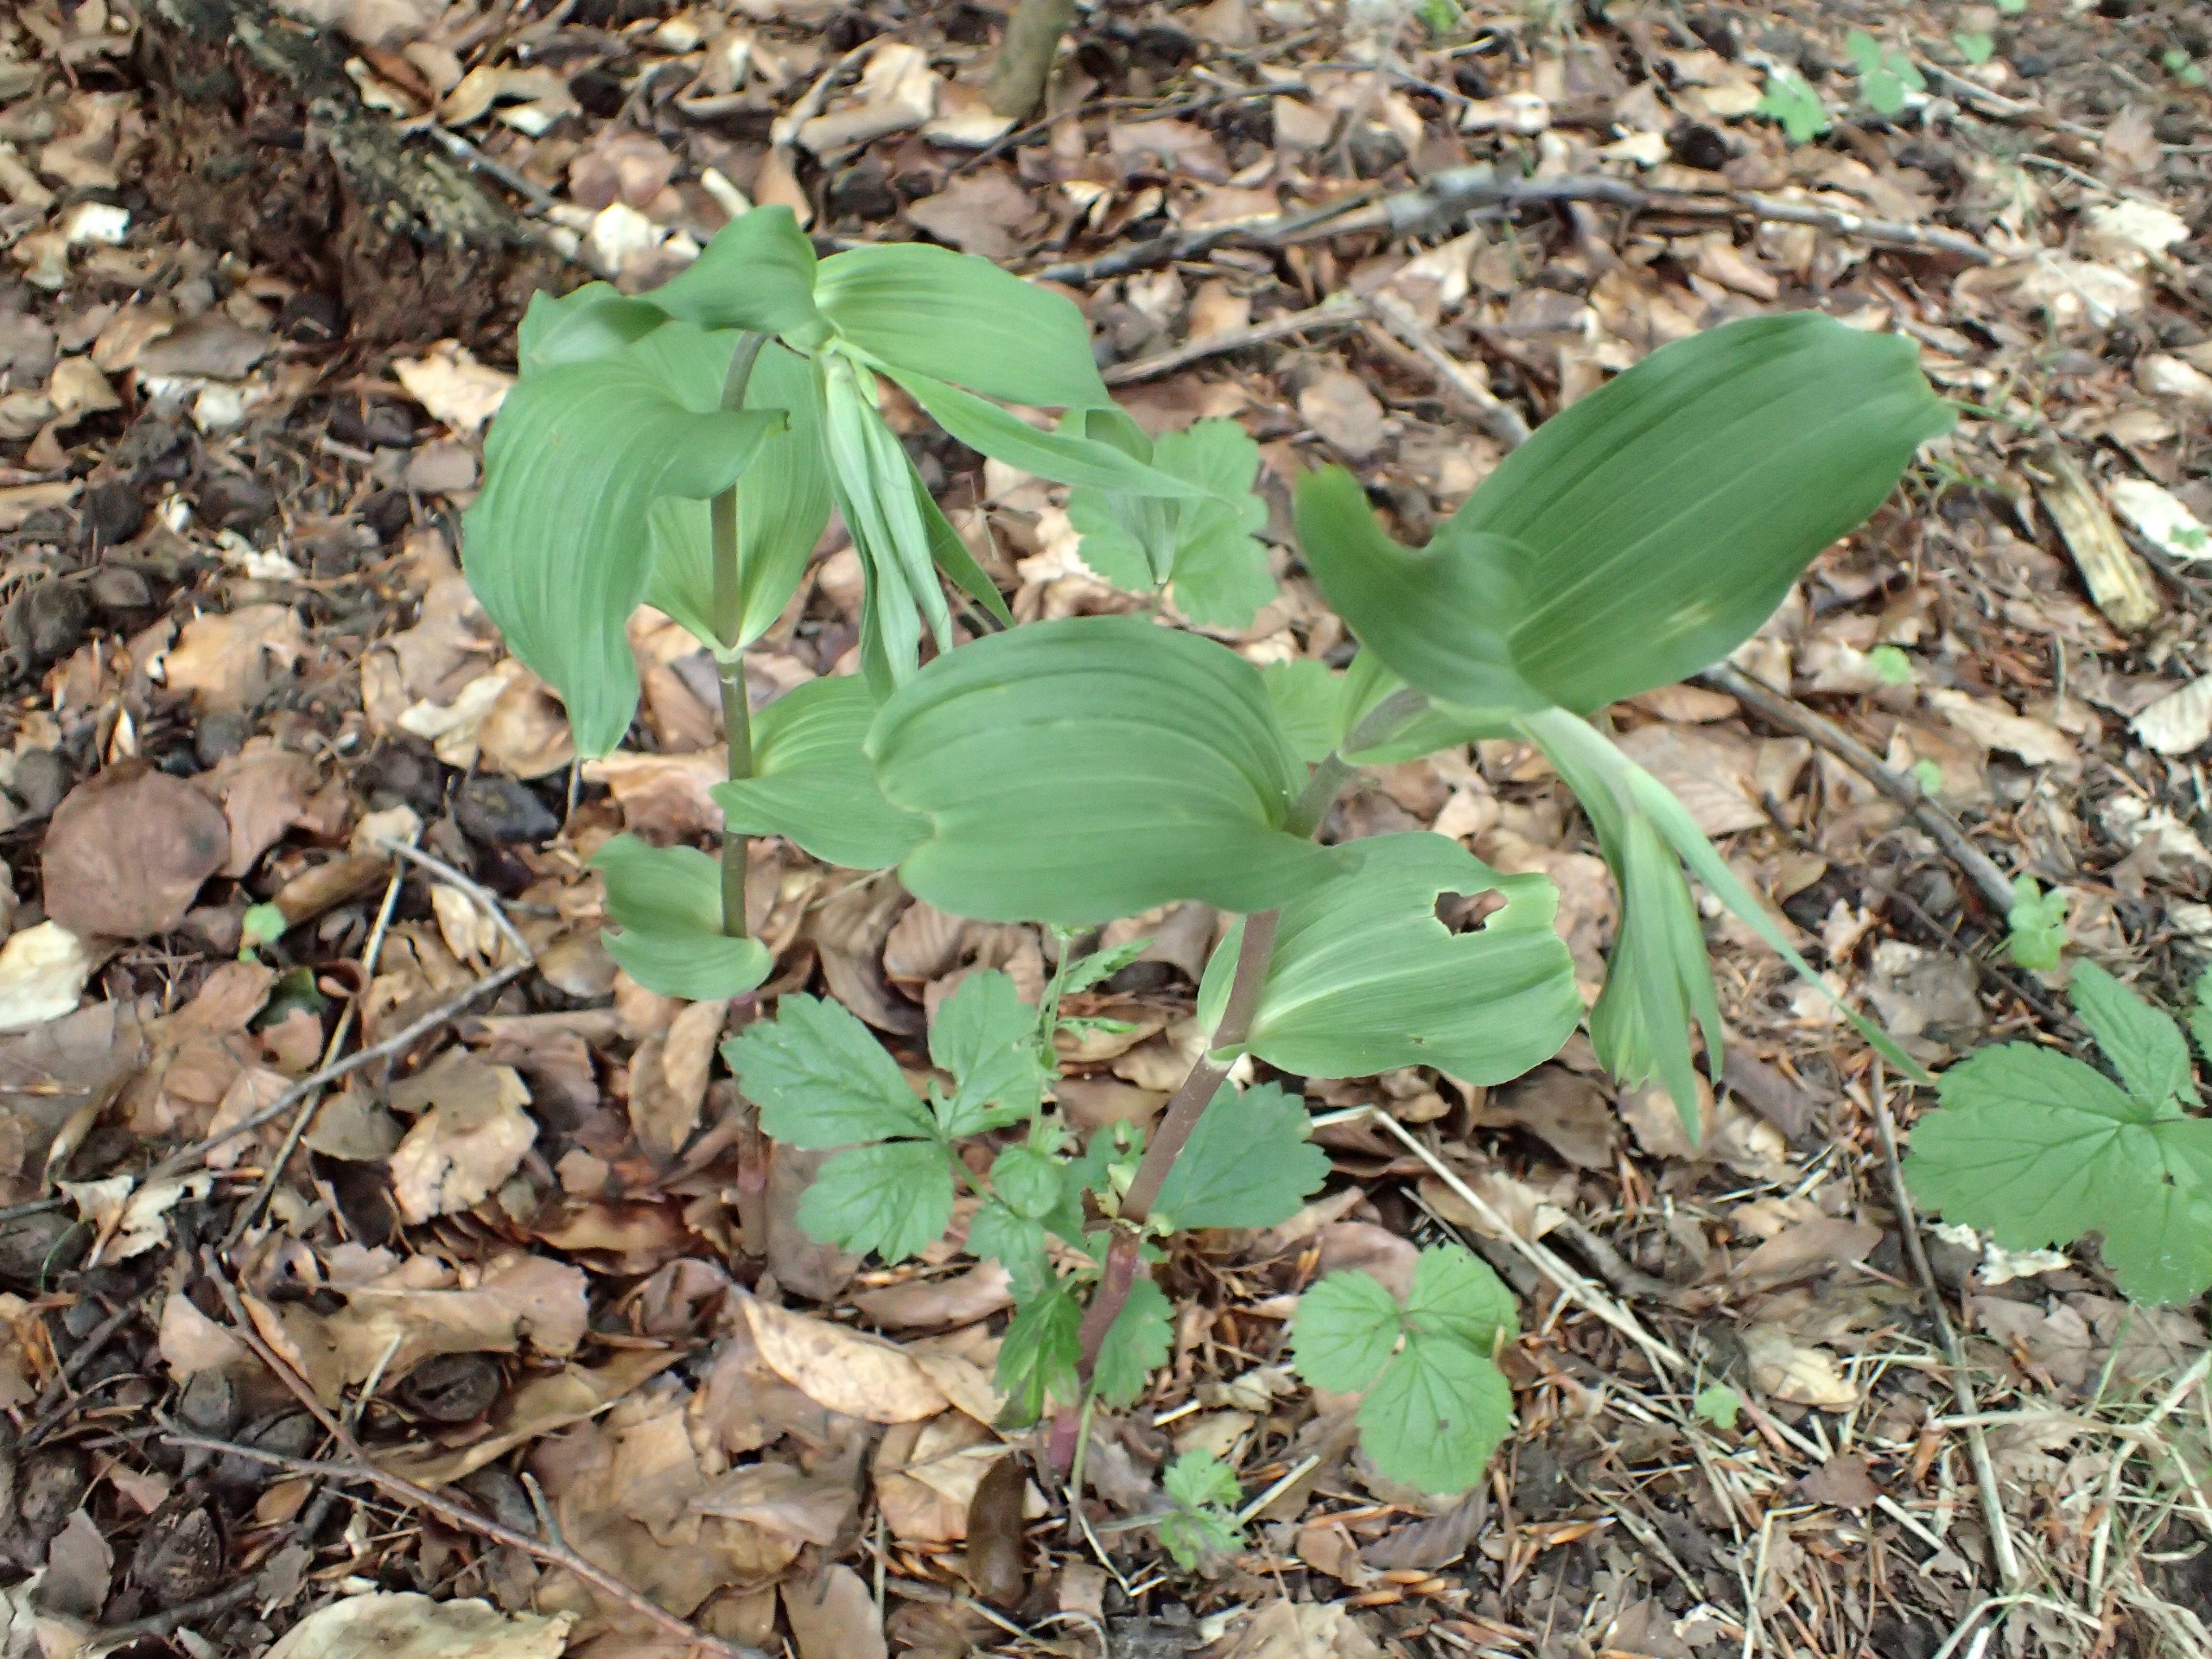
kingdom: Plantae
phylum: Tracheophyta
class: Liliopsida
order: Asparagales
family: Orchidaceae
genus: Epipactis
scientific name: Epipactis helleborine
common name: Skov-hullæbe
